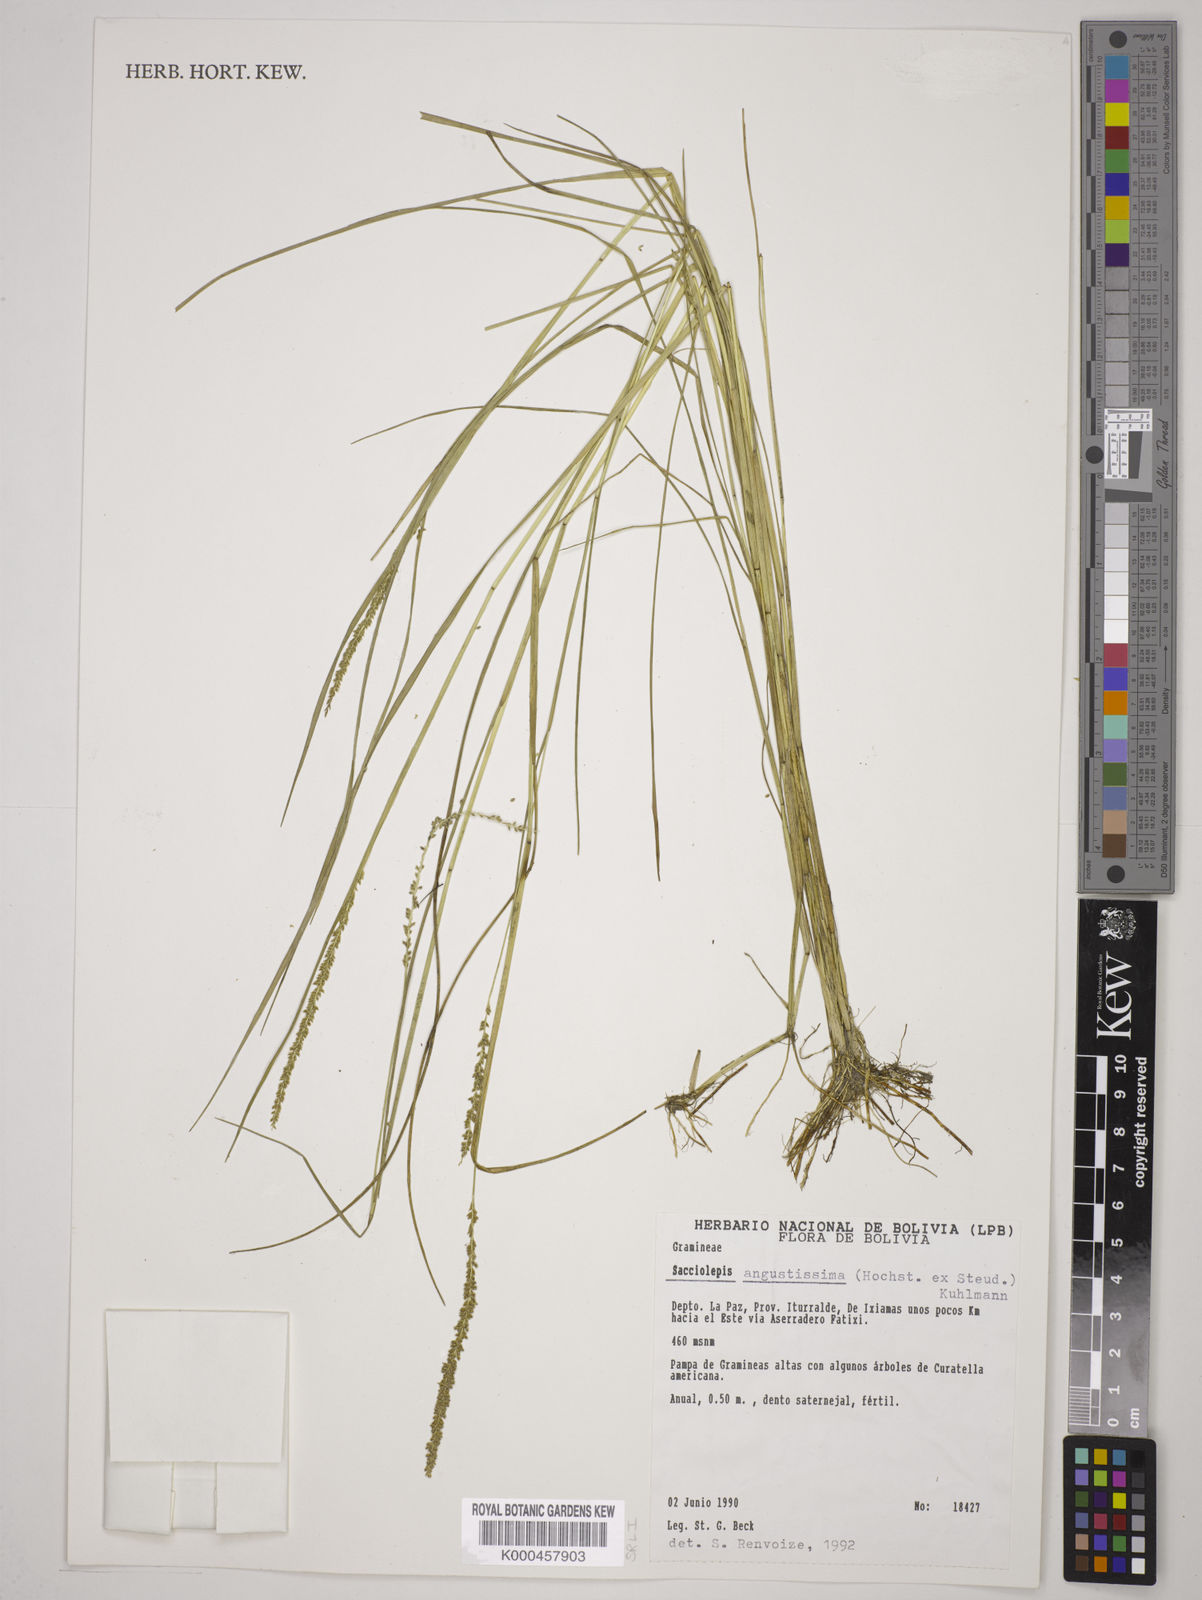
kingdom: Plantae
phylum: Tracheophyta
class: Liliopsida
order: Poales
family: Poaceae
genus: Sacciolepis
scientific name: Sacciolepis angustissima
